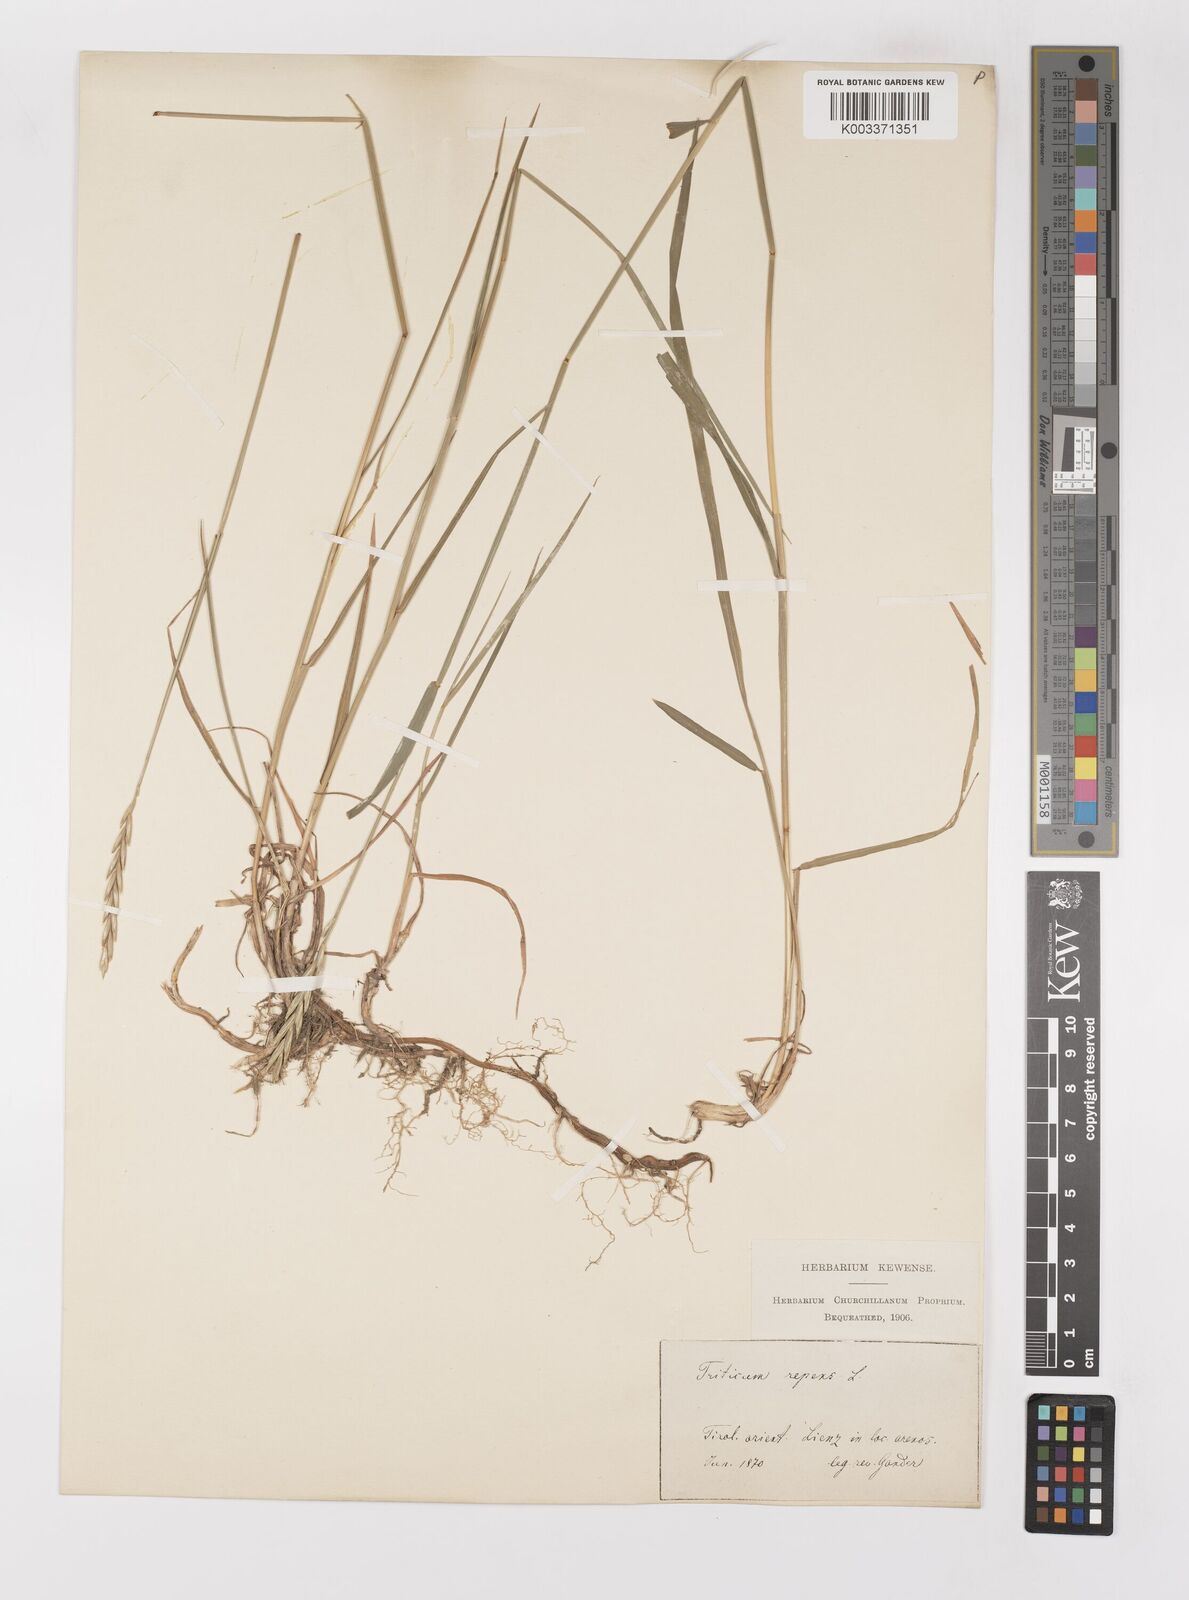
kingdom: Plantae
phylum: Tracheophyta
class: Liliopsida
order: Poales
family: Poaceae
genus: Elymus
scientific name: Elymus repens
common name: Quackgrass
